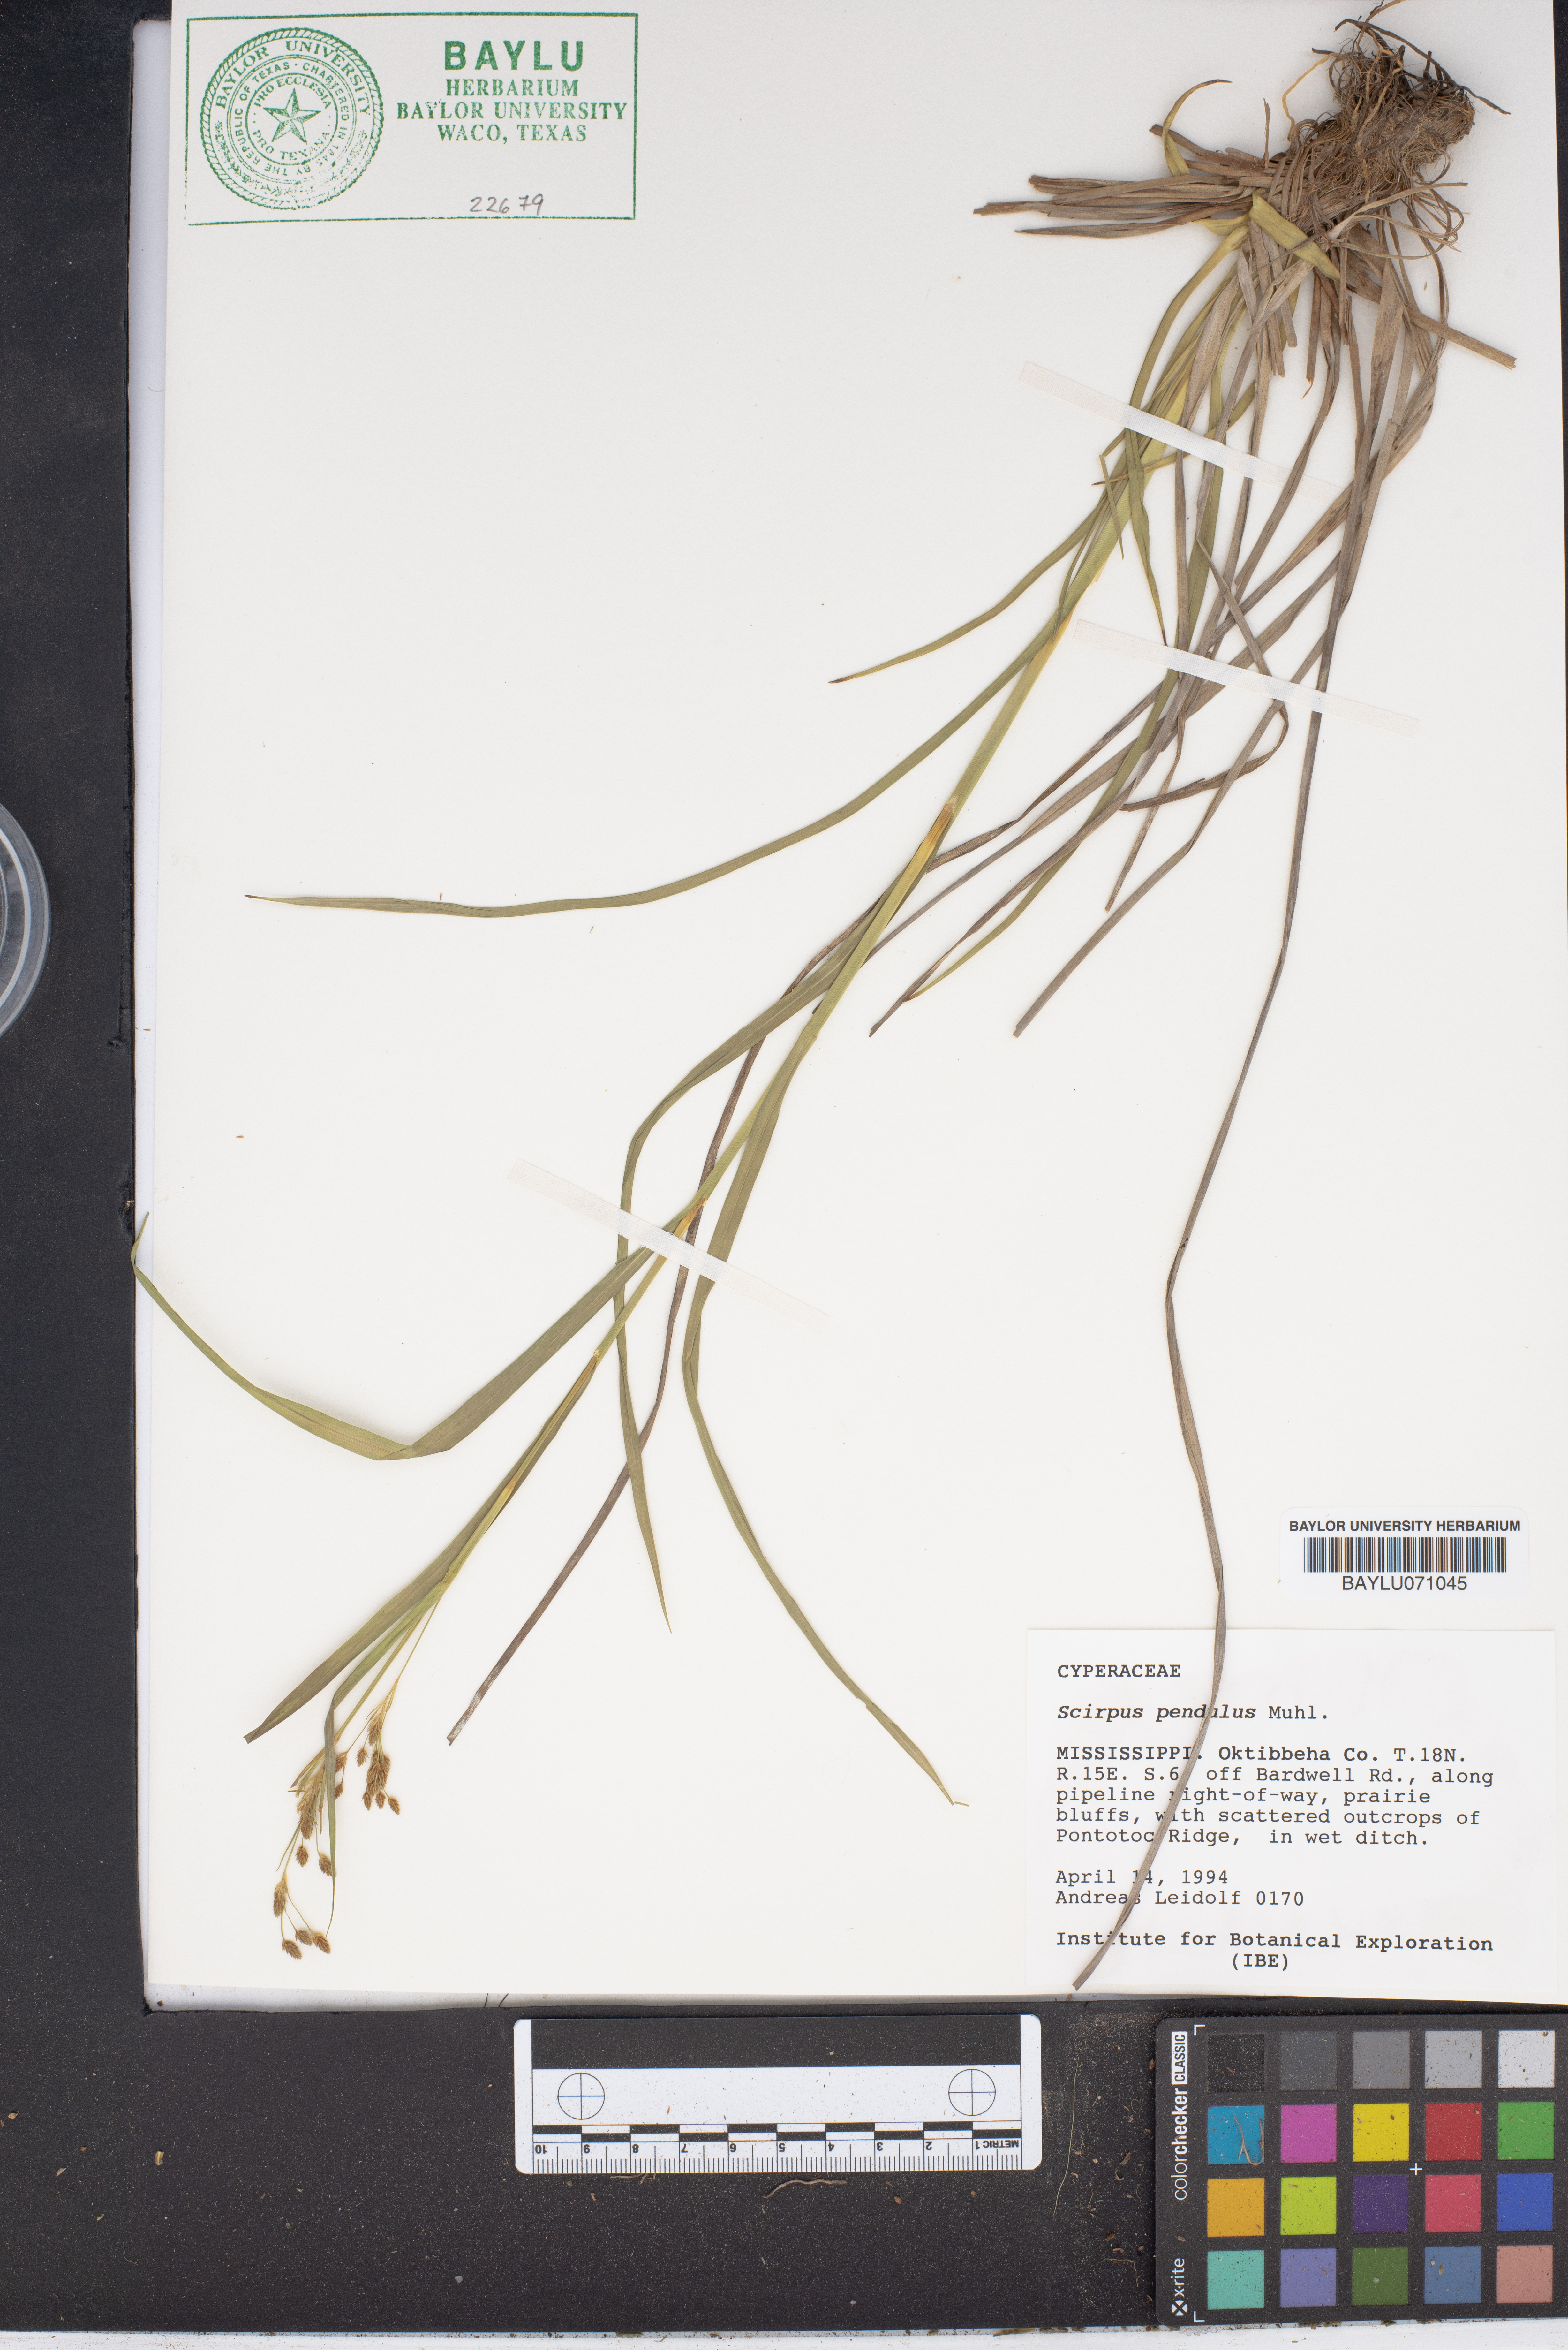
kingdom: Plantae
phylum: Tracheophyta
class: Liliopsida
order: Poales
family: Cyperaceae
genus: Scirpus
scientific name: Scirpus pendulus
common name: Nodding bulrush
